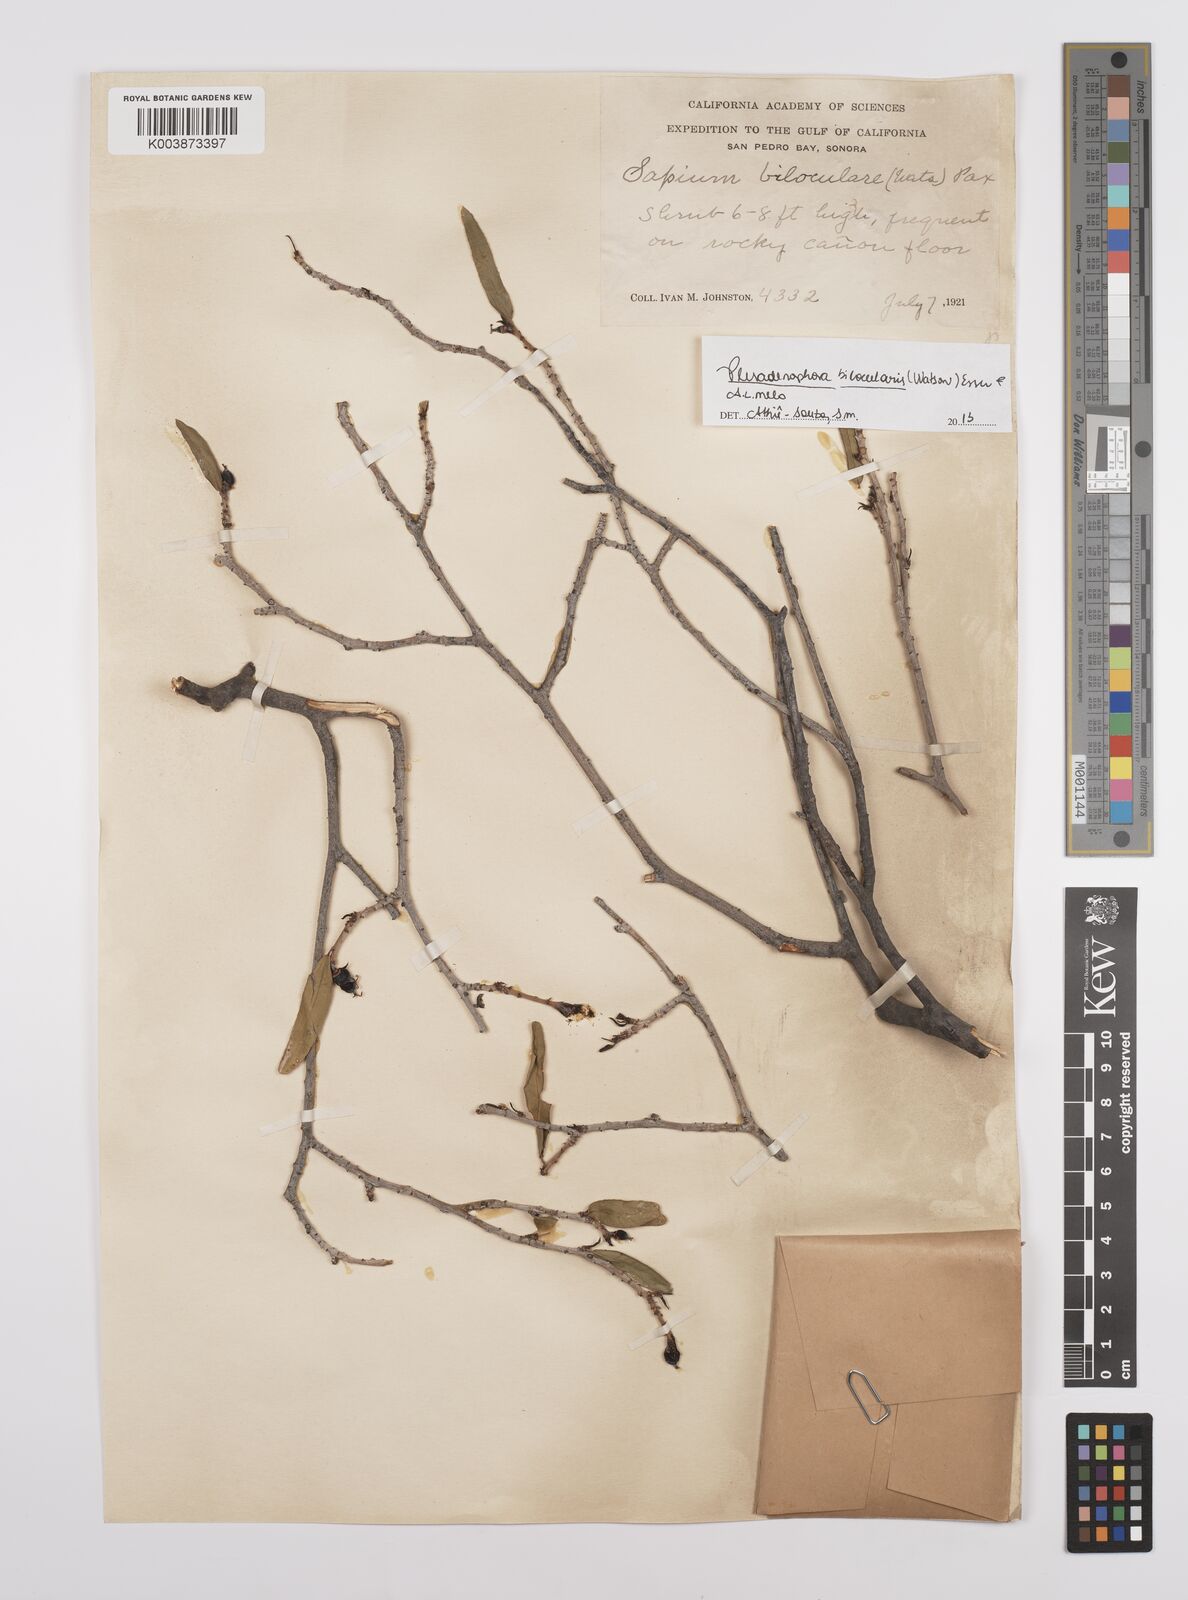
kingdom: Plantae
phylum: Tracheophyta
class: Magnoliopsida
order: Malpighiales
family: Euphorbiaceae
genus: Pleradenophora
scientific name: Pleradenophora bilocularis
